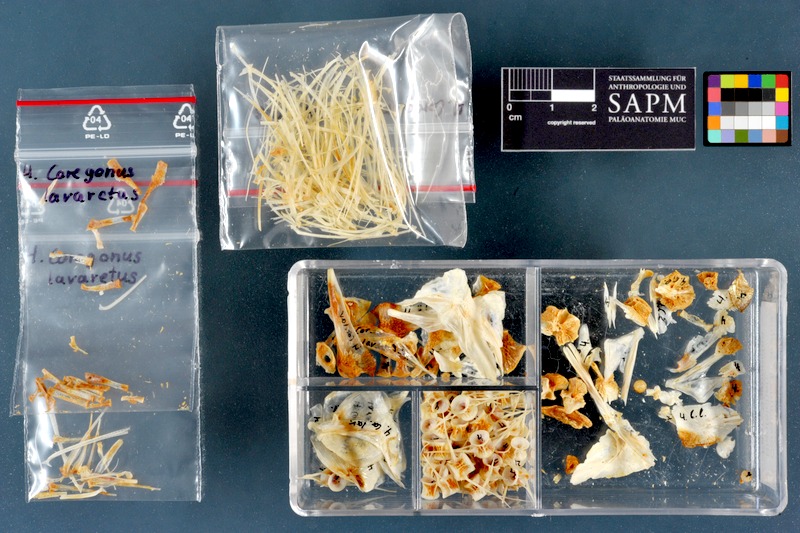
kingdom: Animalia
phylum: Chordata
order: Salmoniformes
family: Salmonidae
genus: Coregonus
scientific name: Coregonus lavaretus
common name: Schelly
